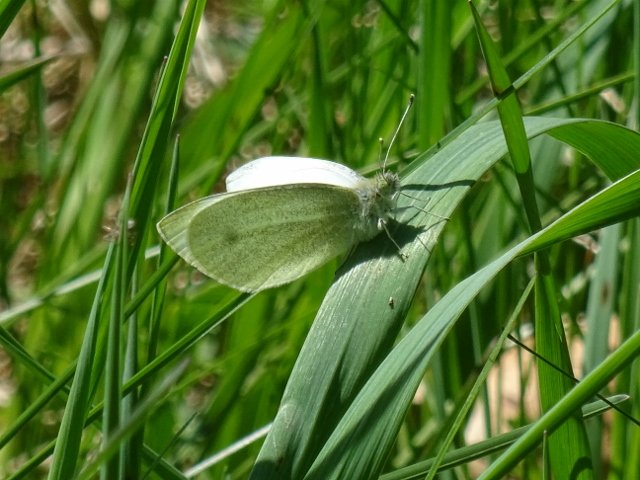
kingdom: Animalia
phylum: Arthropoda
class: Insecta
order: Lepidoptera
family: Pieridae
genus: Pieris
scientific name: Pieris rapae
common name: Cabbage White
